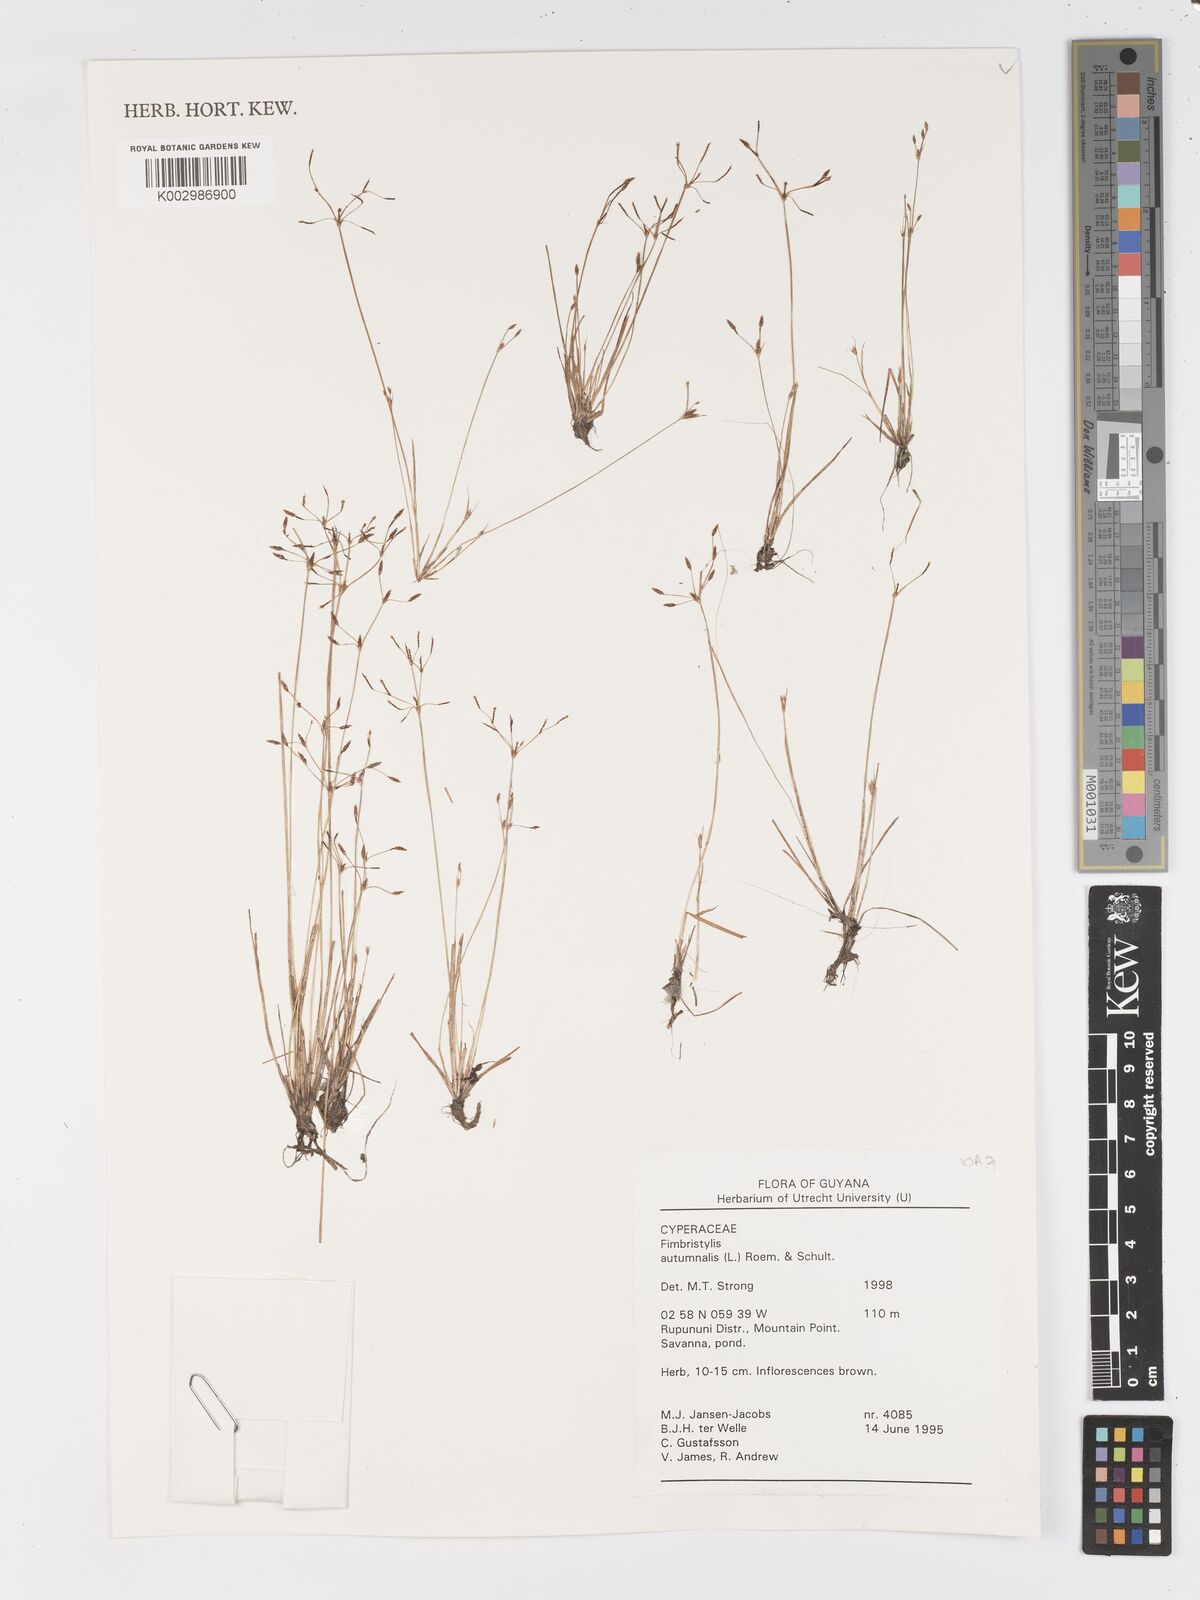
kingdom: Plantae
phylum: Tracheophyta
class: Liliopsida
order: Poales
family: Cyperaceae
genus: Fimbristylis
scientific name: Fimbristylis autumnalis
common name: Slender fimbristylis
